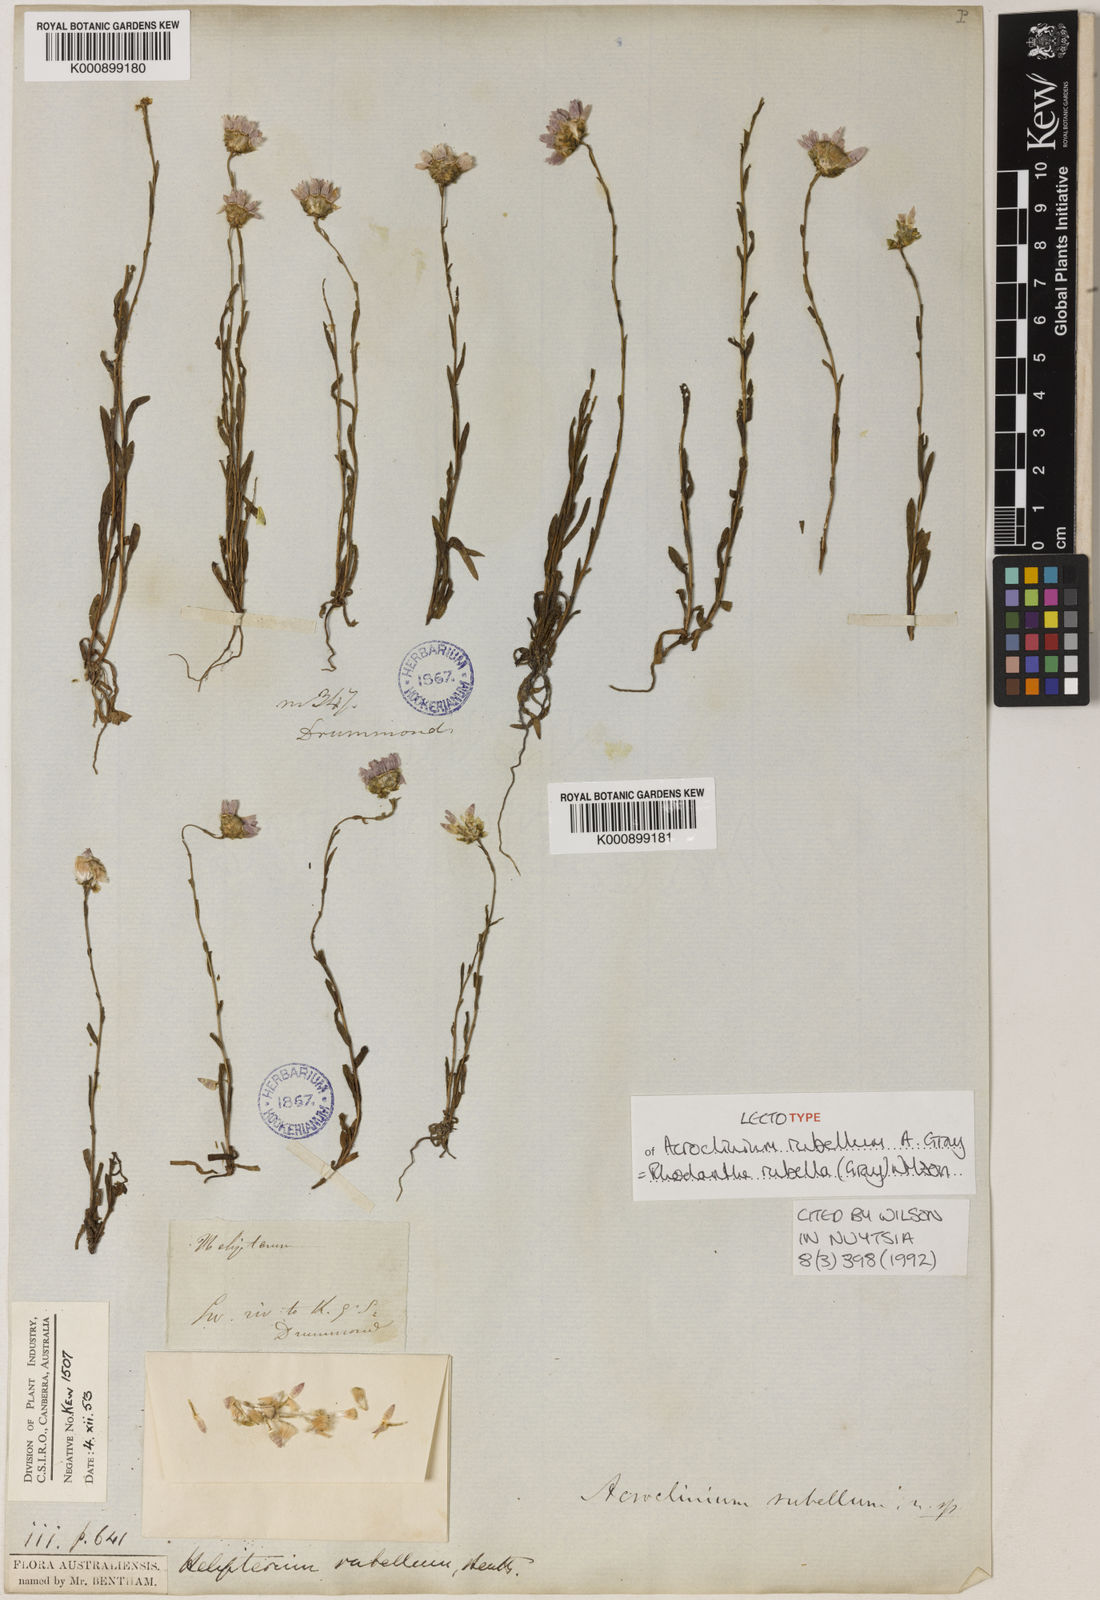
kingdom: Plantae
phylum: Tracheophyta
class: Magnoliopsida
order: Asterales
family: Asteraceae
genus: Rhodanthe
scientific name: Rhodanthe rubella
